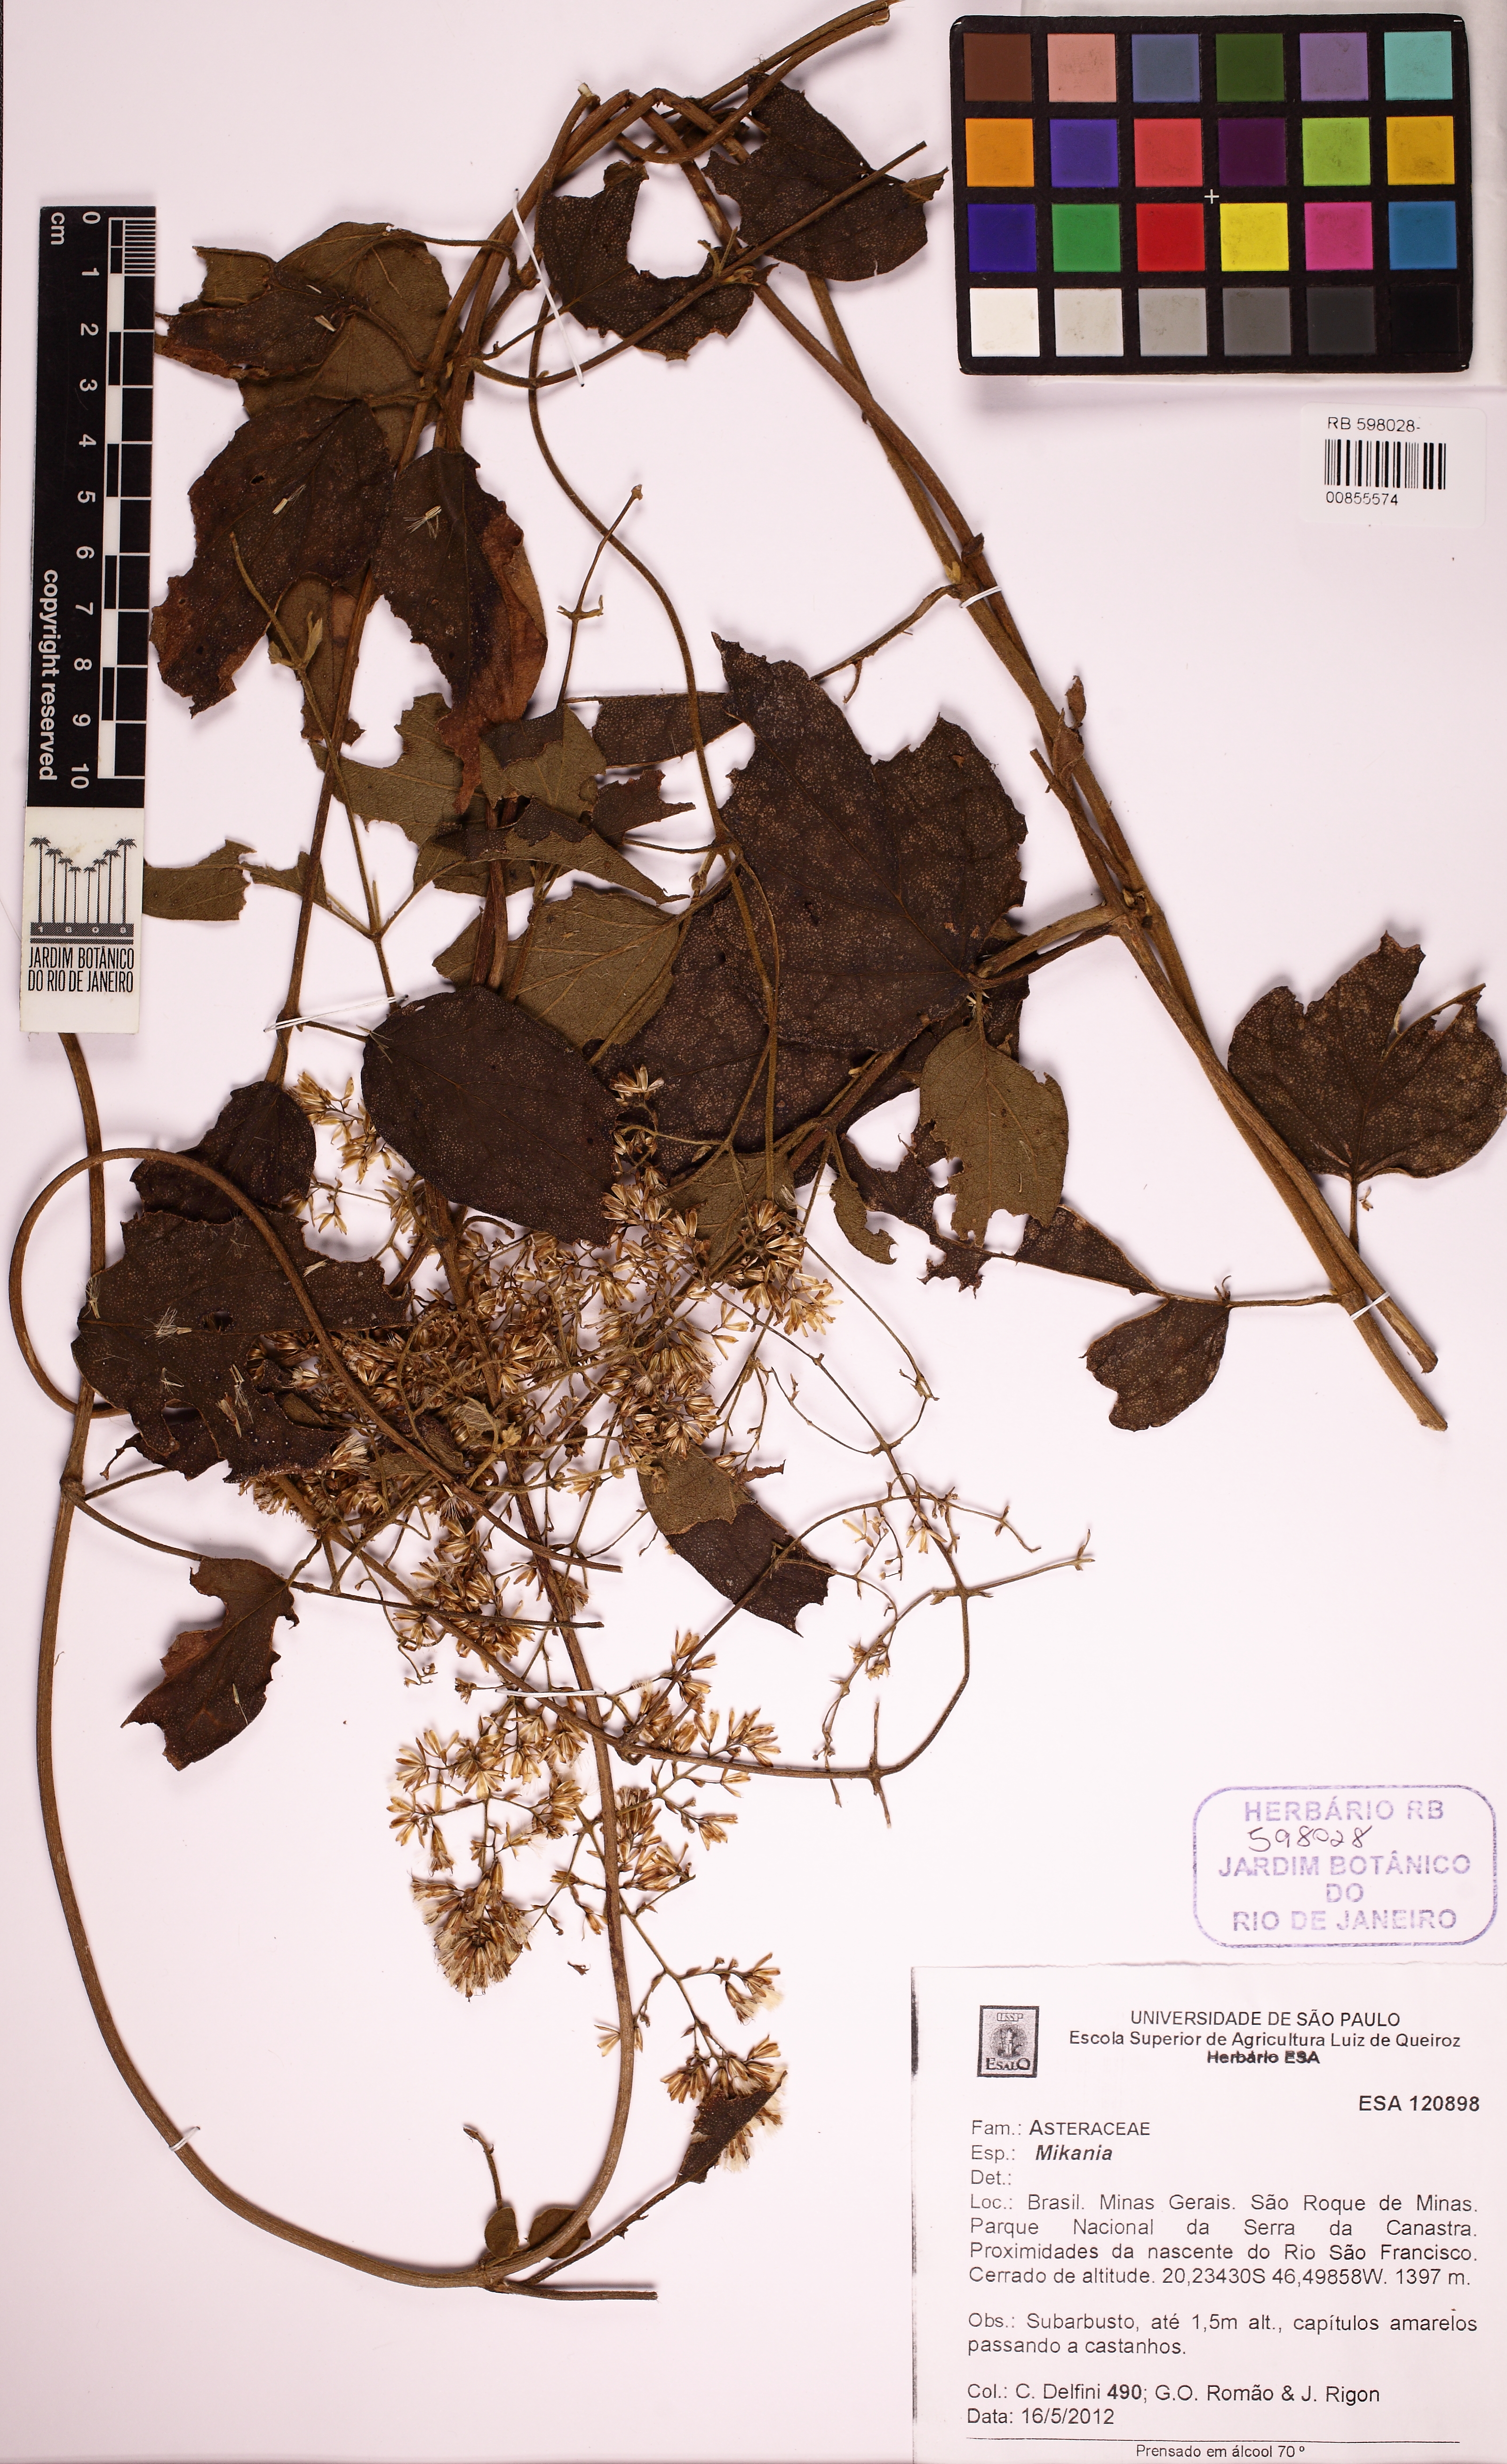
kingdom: Plantae
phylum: Tracheophyta
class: Magnoliopsida
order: Asterales
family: Asteraceae
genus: Mikania
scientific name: Mikania
